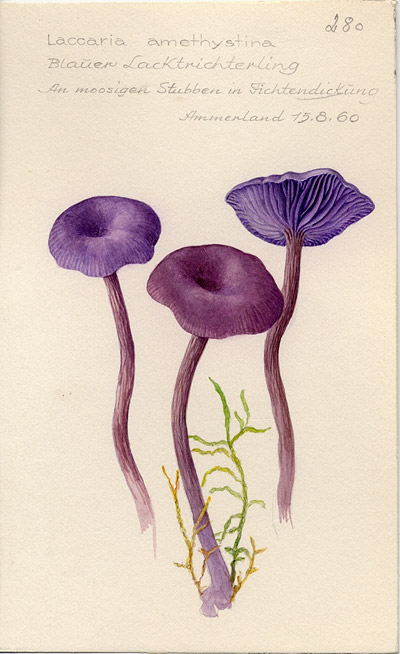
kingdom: Fungi
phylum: Basidiomycota
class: Agaricomycetes
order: Agaricales
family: Hydnangiaceae
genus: Laccaria
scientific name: Laccaria laccata
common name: Deceiver
